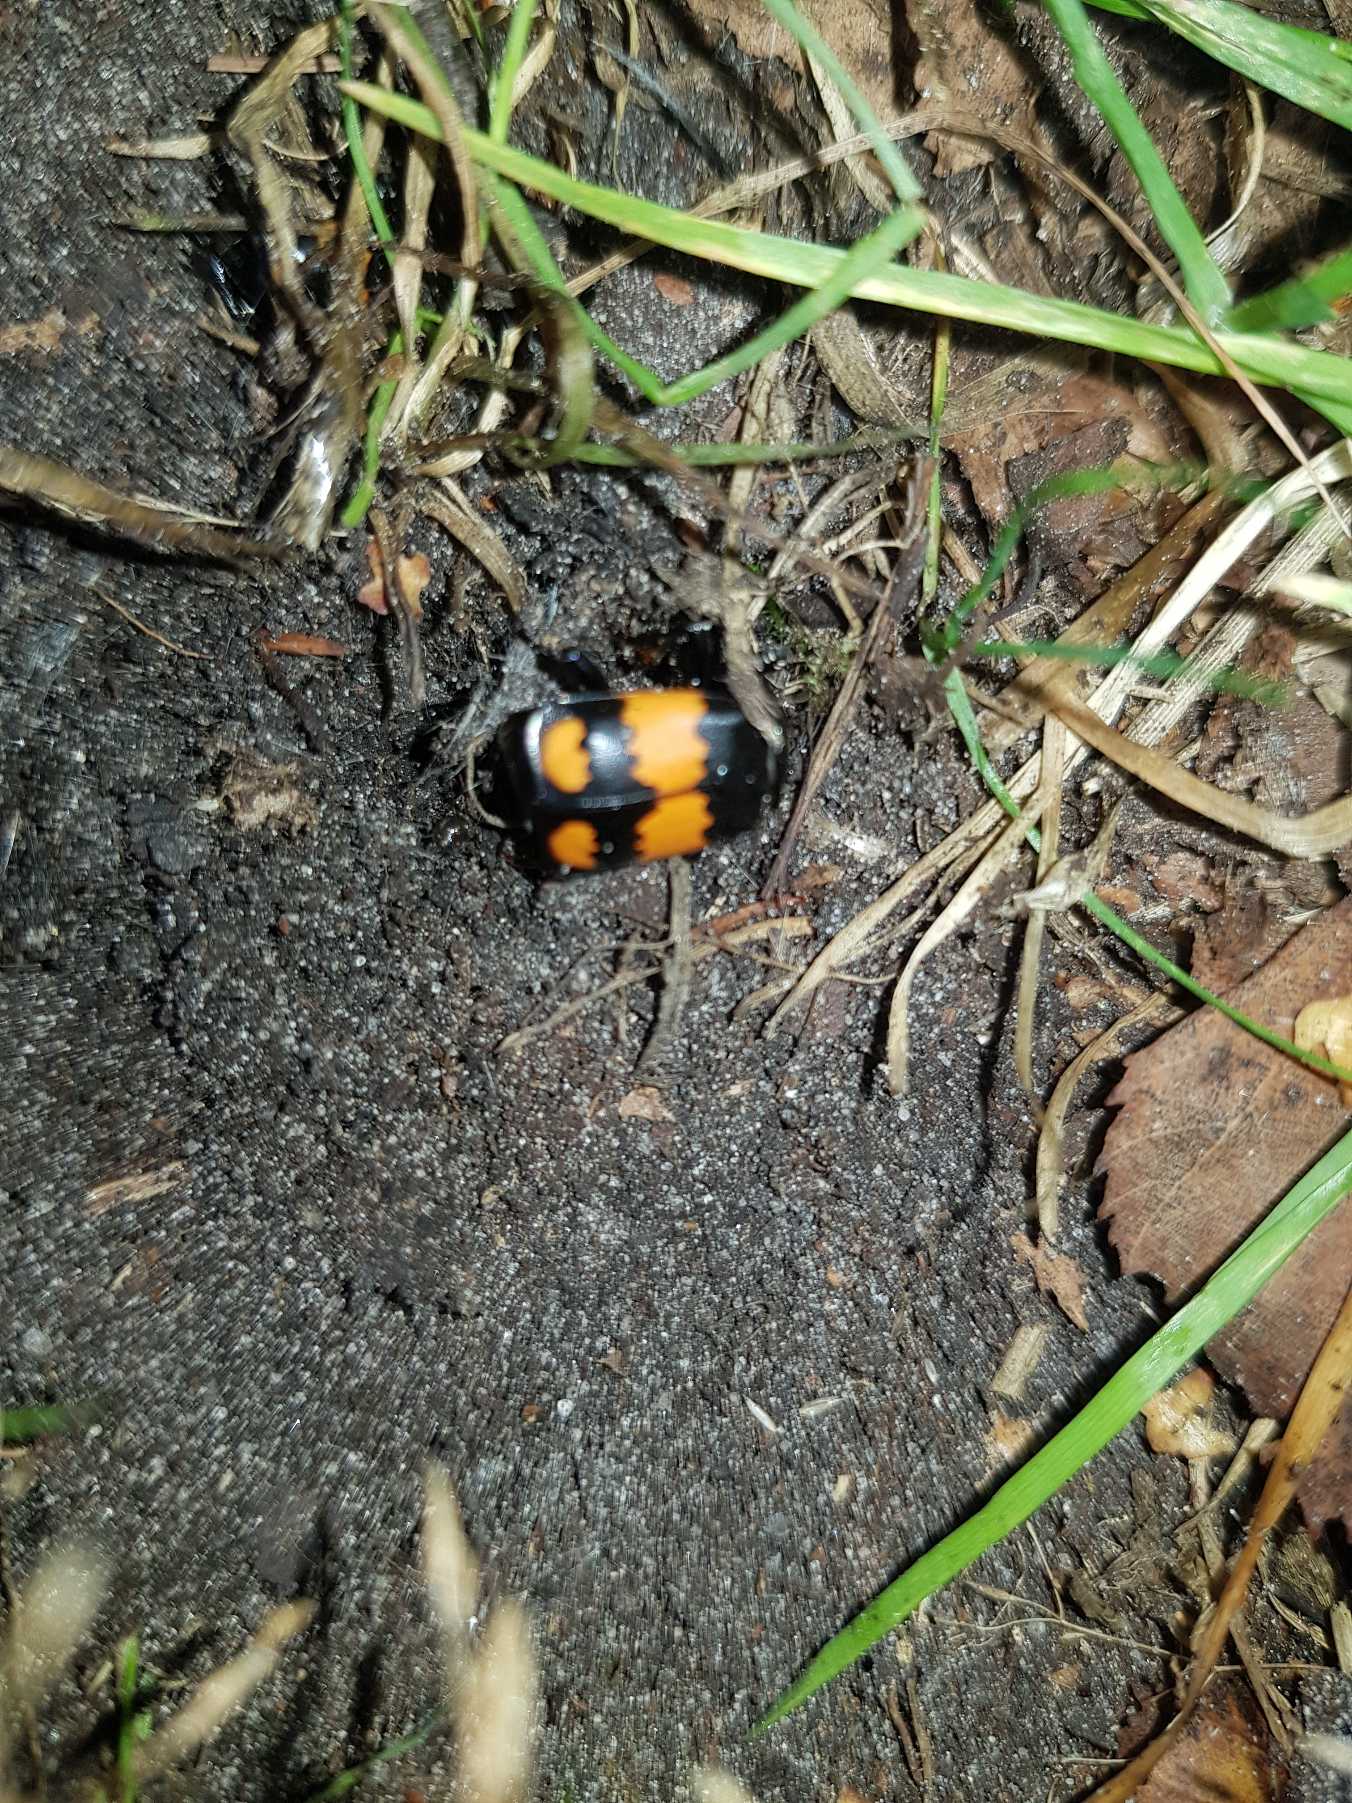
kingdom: Animalia
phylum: Arthropoda
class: Insecta
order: Coleoptera
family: Staphylinidae
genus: Nicrophorus
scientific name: Nicrophorus vespilloides
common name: Sortkøllet ådselgraver
